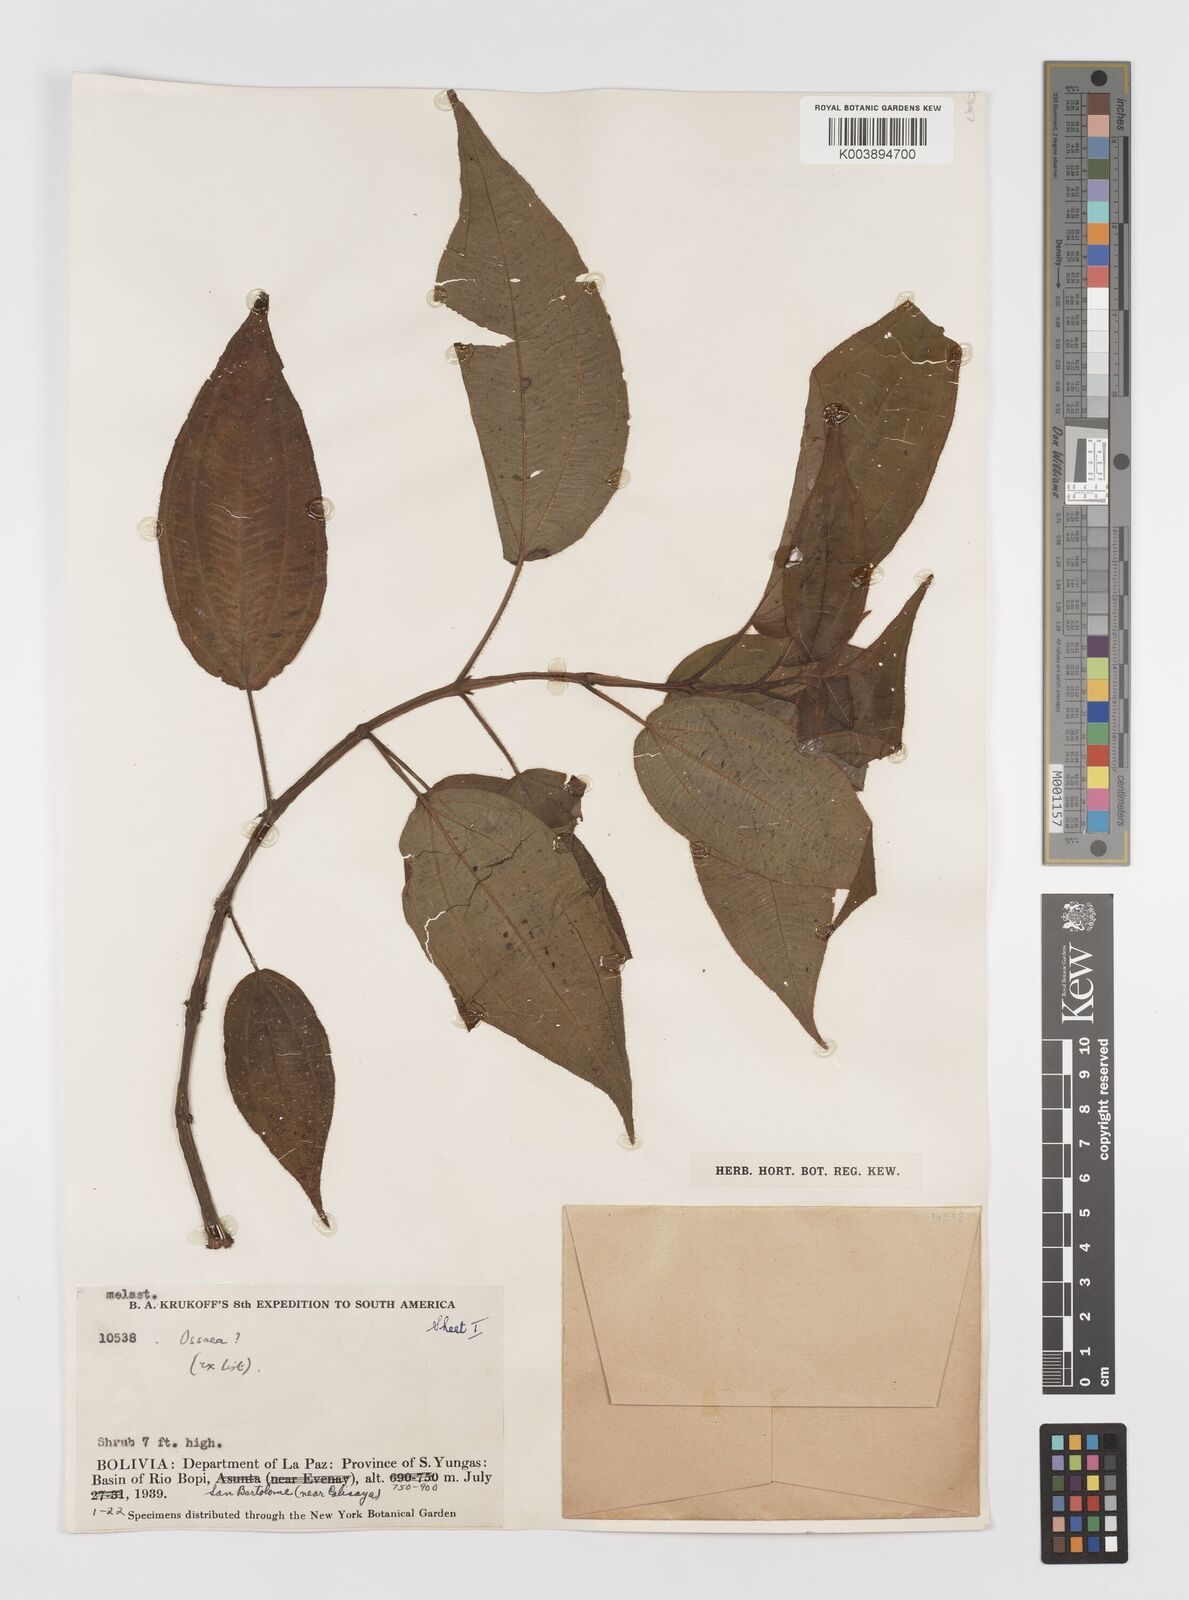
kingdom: Plantae
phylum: Tracheophyta
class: Magnoliopsida
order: Myrtales
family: Melastomataceae
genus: Ossaea
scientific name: Ossaea
